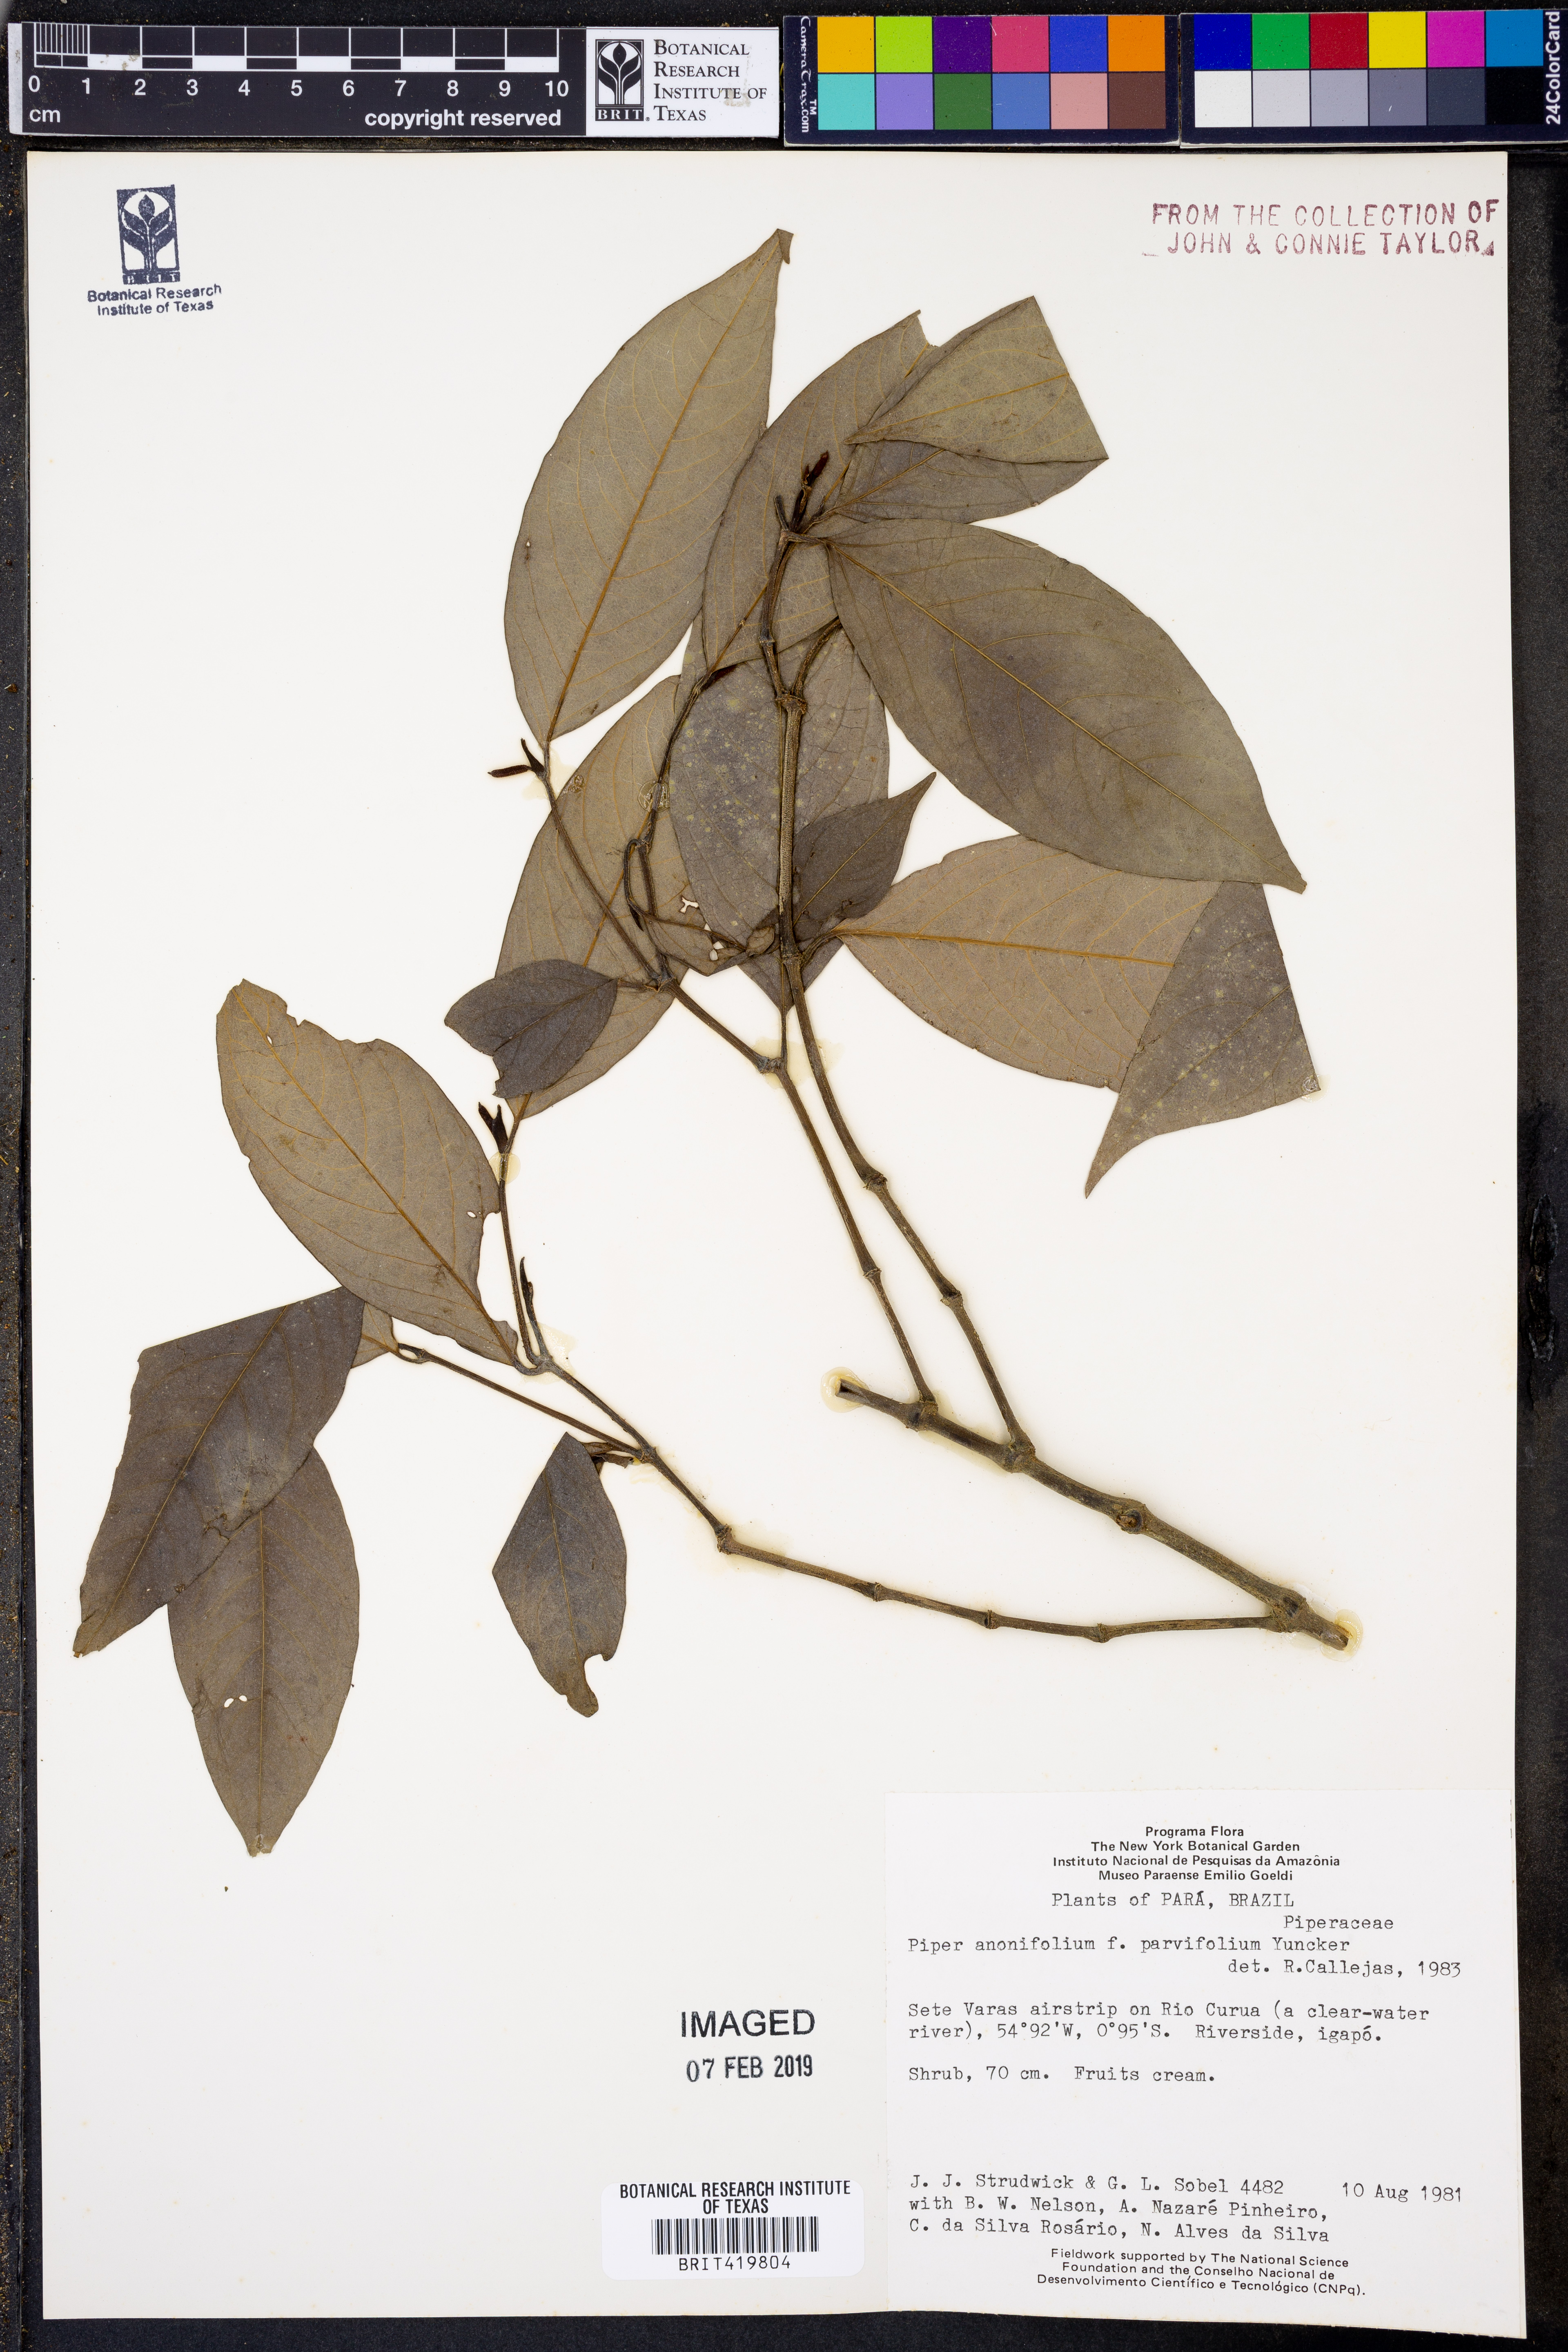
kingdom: Plantae
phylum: Tracheophyta
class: Magnoliopsida
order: Piperales
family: Piperaceae
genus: Piper
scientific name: Piper anonifolium
